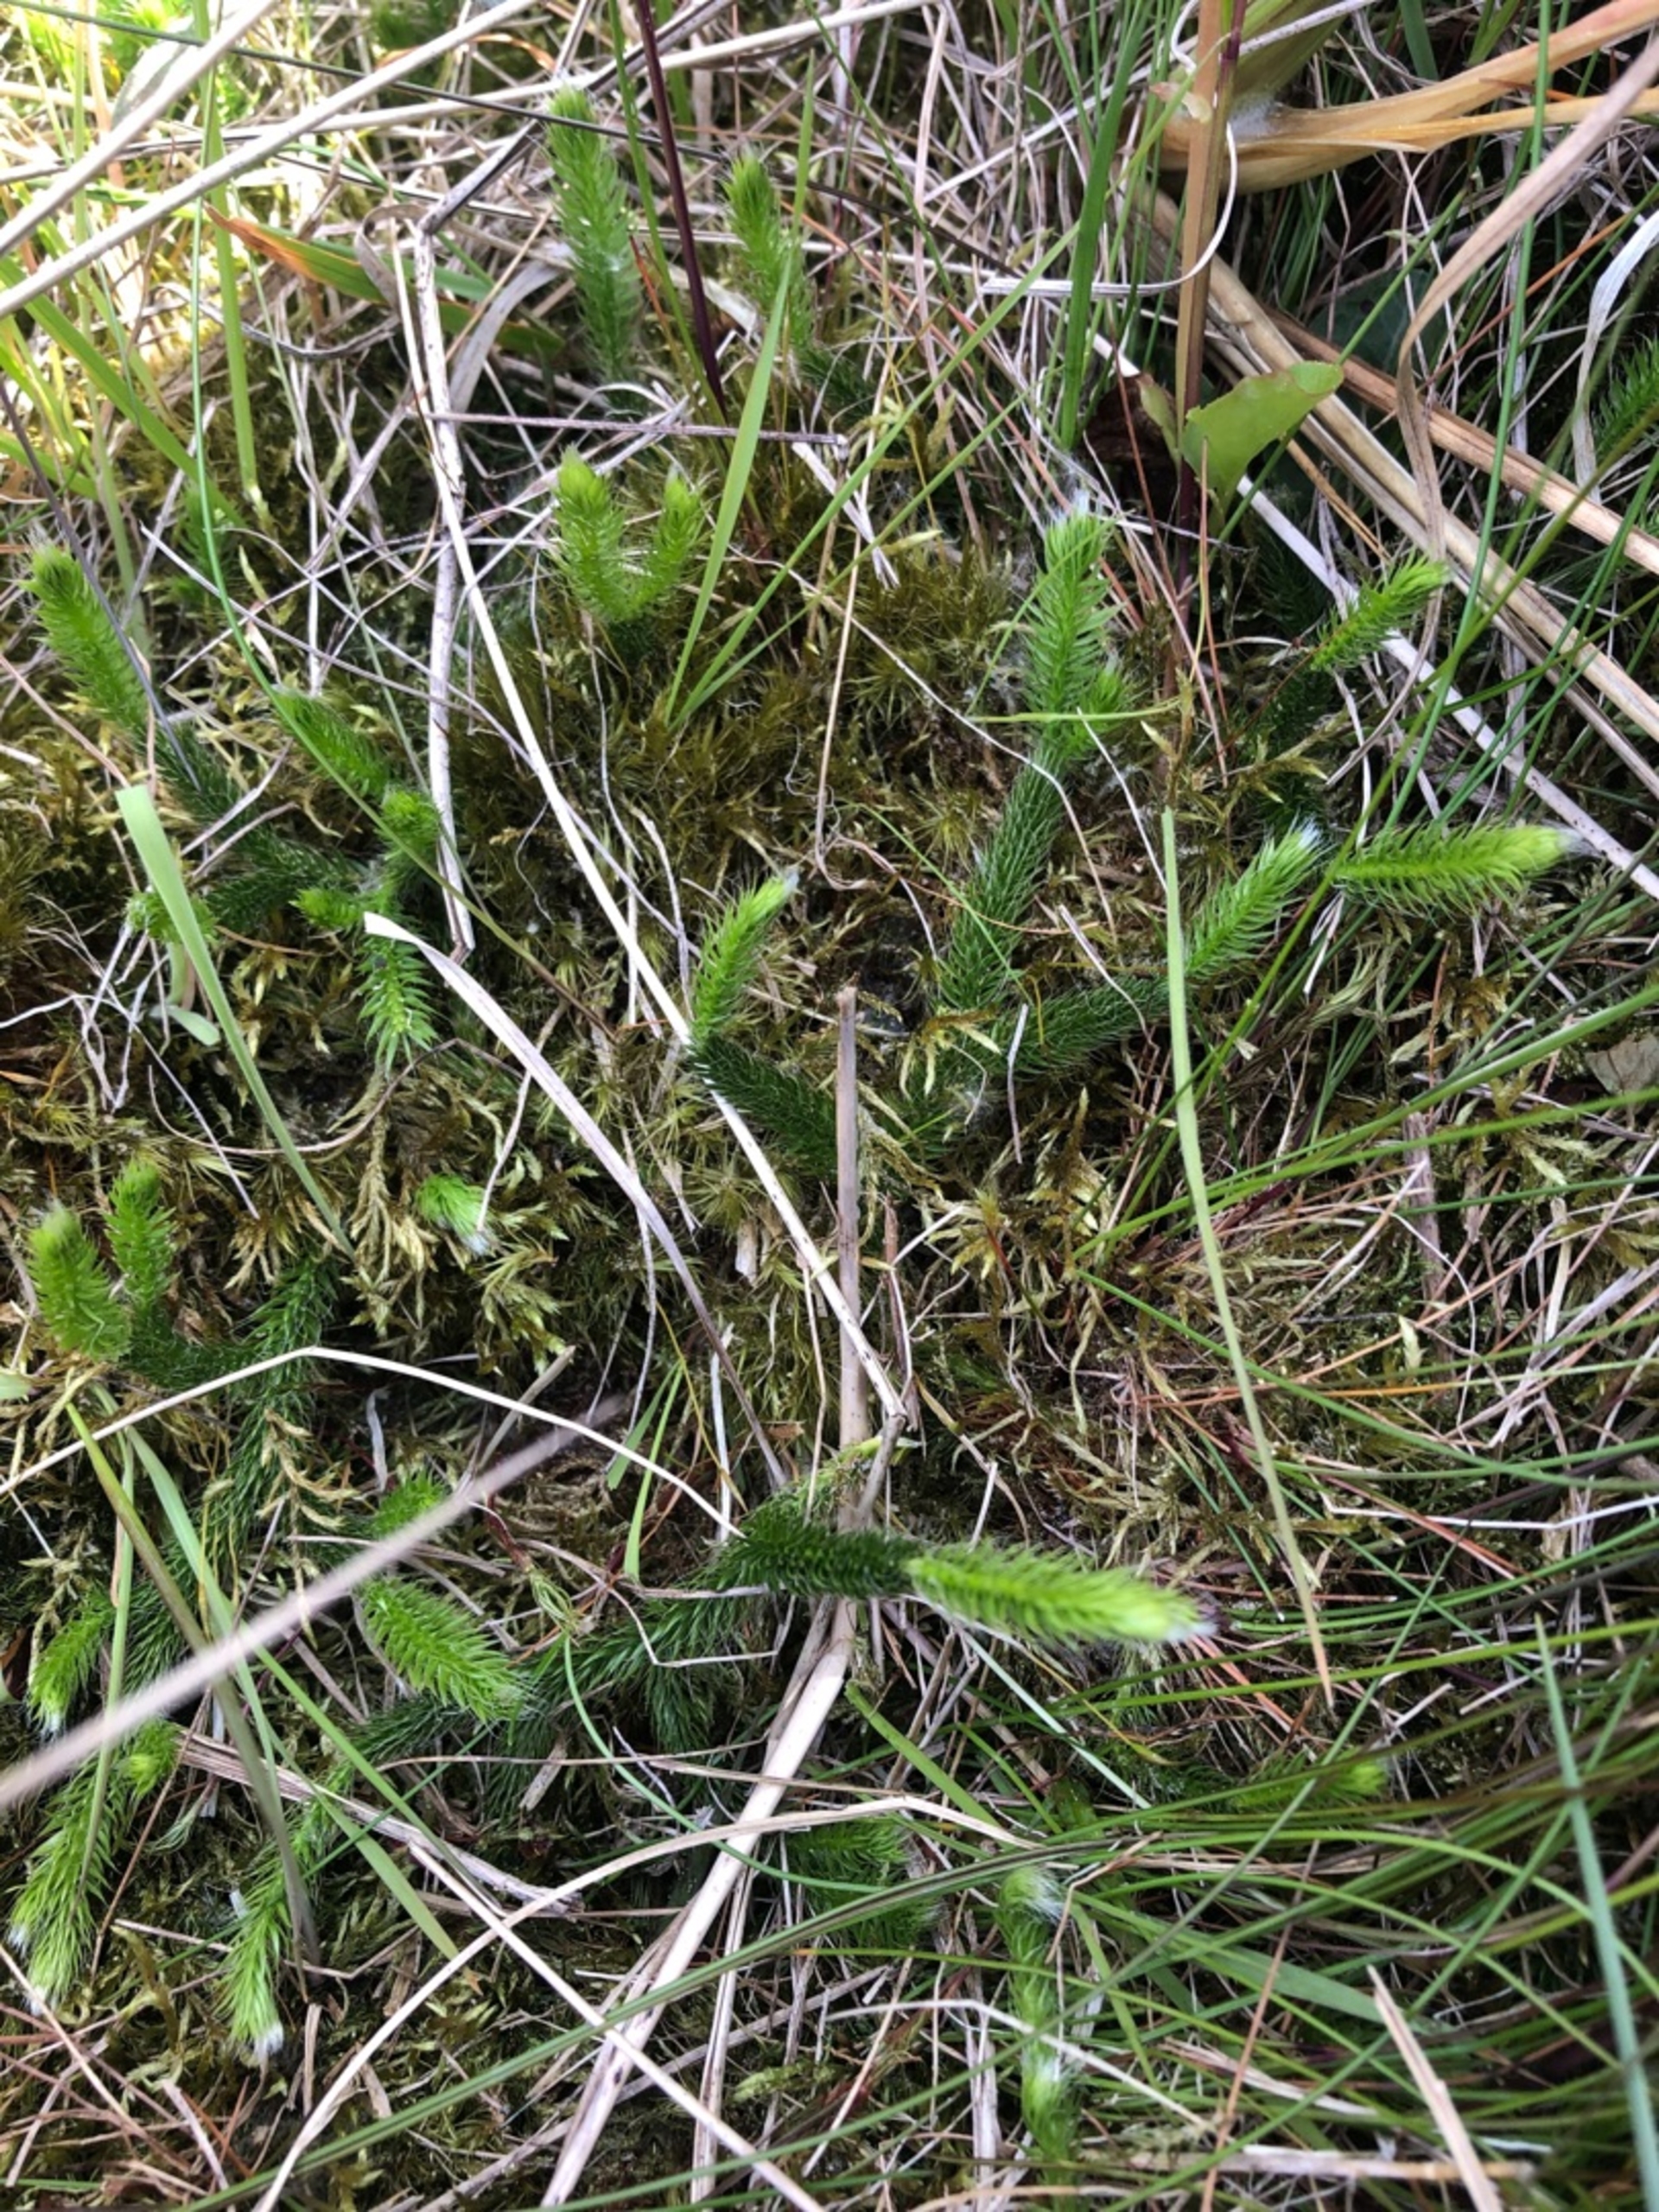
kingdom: Plantae
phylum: Tracheophyta
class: Lycopodiopsida
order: Lycopodiales
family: Lycopodiaceae
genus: Lycopodium
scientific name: Lycopodium clavatum
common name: Almindelig ulvefod
